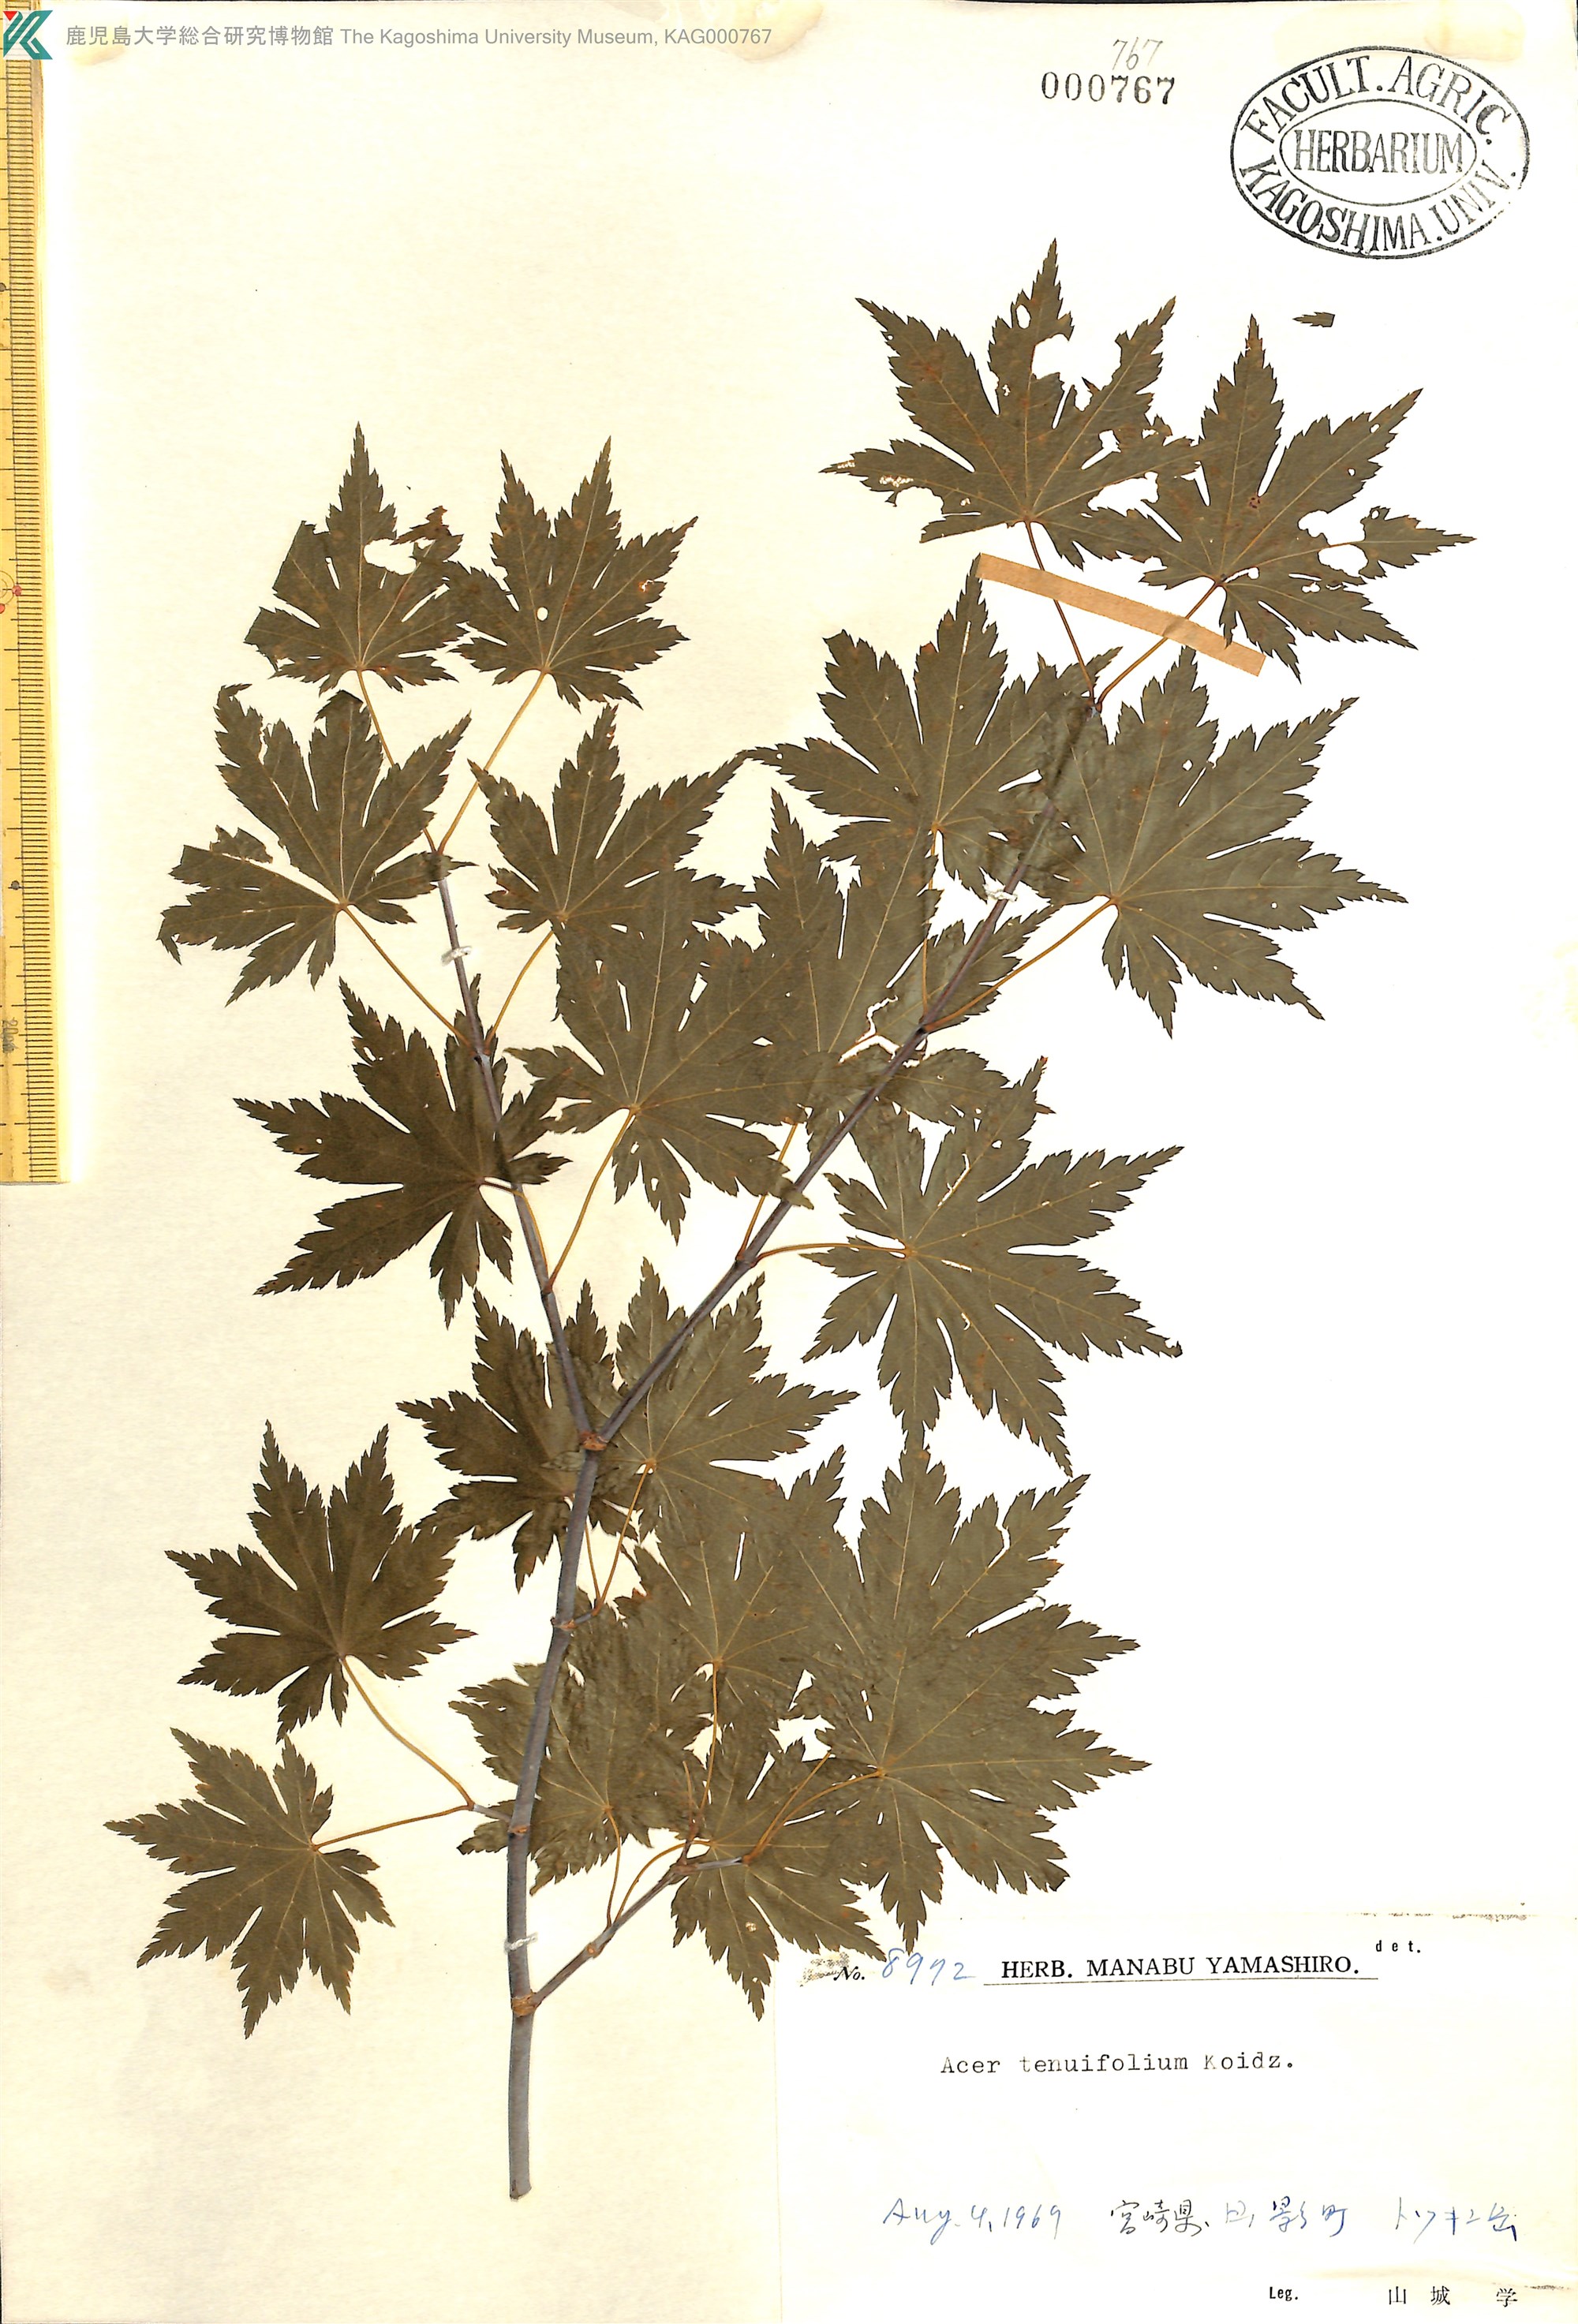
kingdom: Plantae
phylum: Tracheophyta
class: Magnoliopsida
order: Sapindales
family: Sapindaceae
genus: Acer
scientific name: Acer shirasawanum
